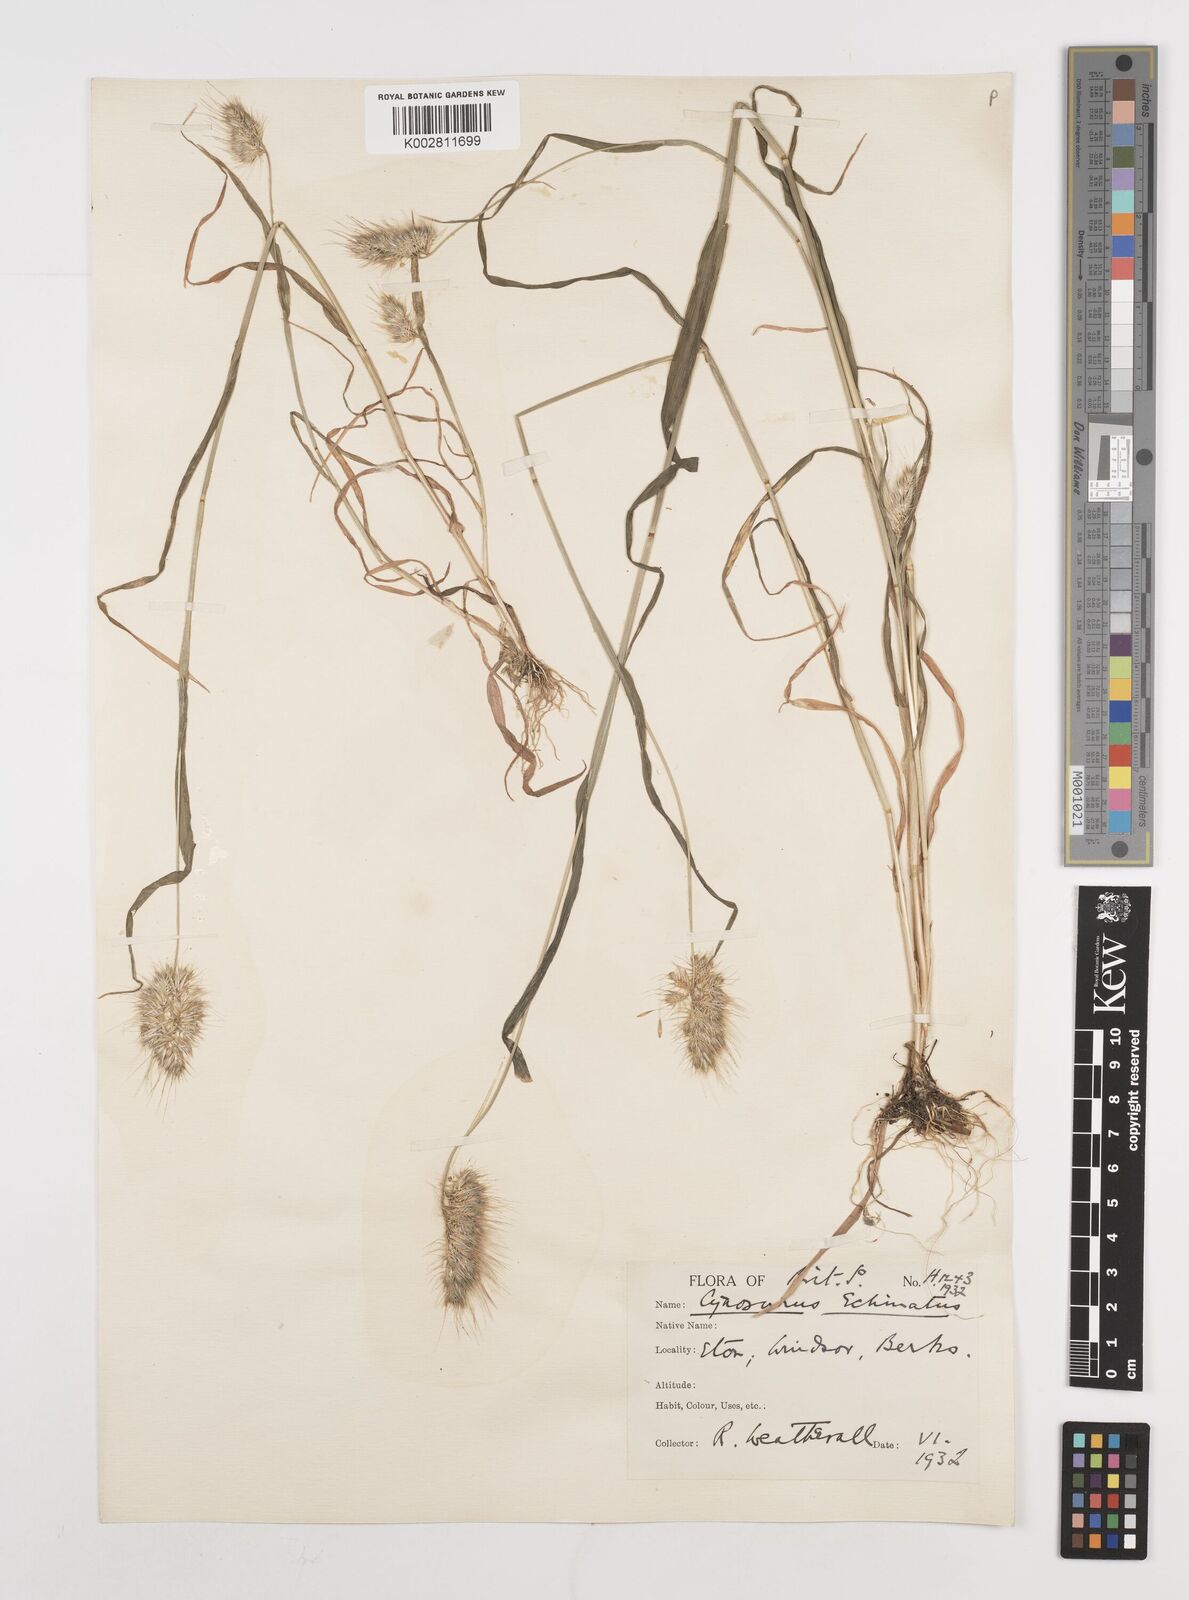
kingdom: Plantae
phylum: Tracheophyta
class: Liliopsida
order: Poales
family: Poaceae
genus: Cynosurus
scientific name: Cynosurus echinatus
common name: Rough dog's-tail
